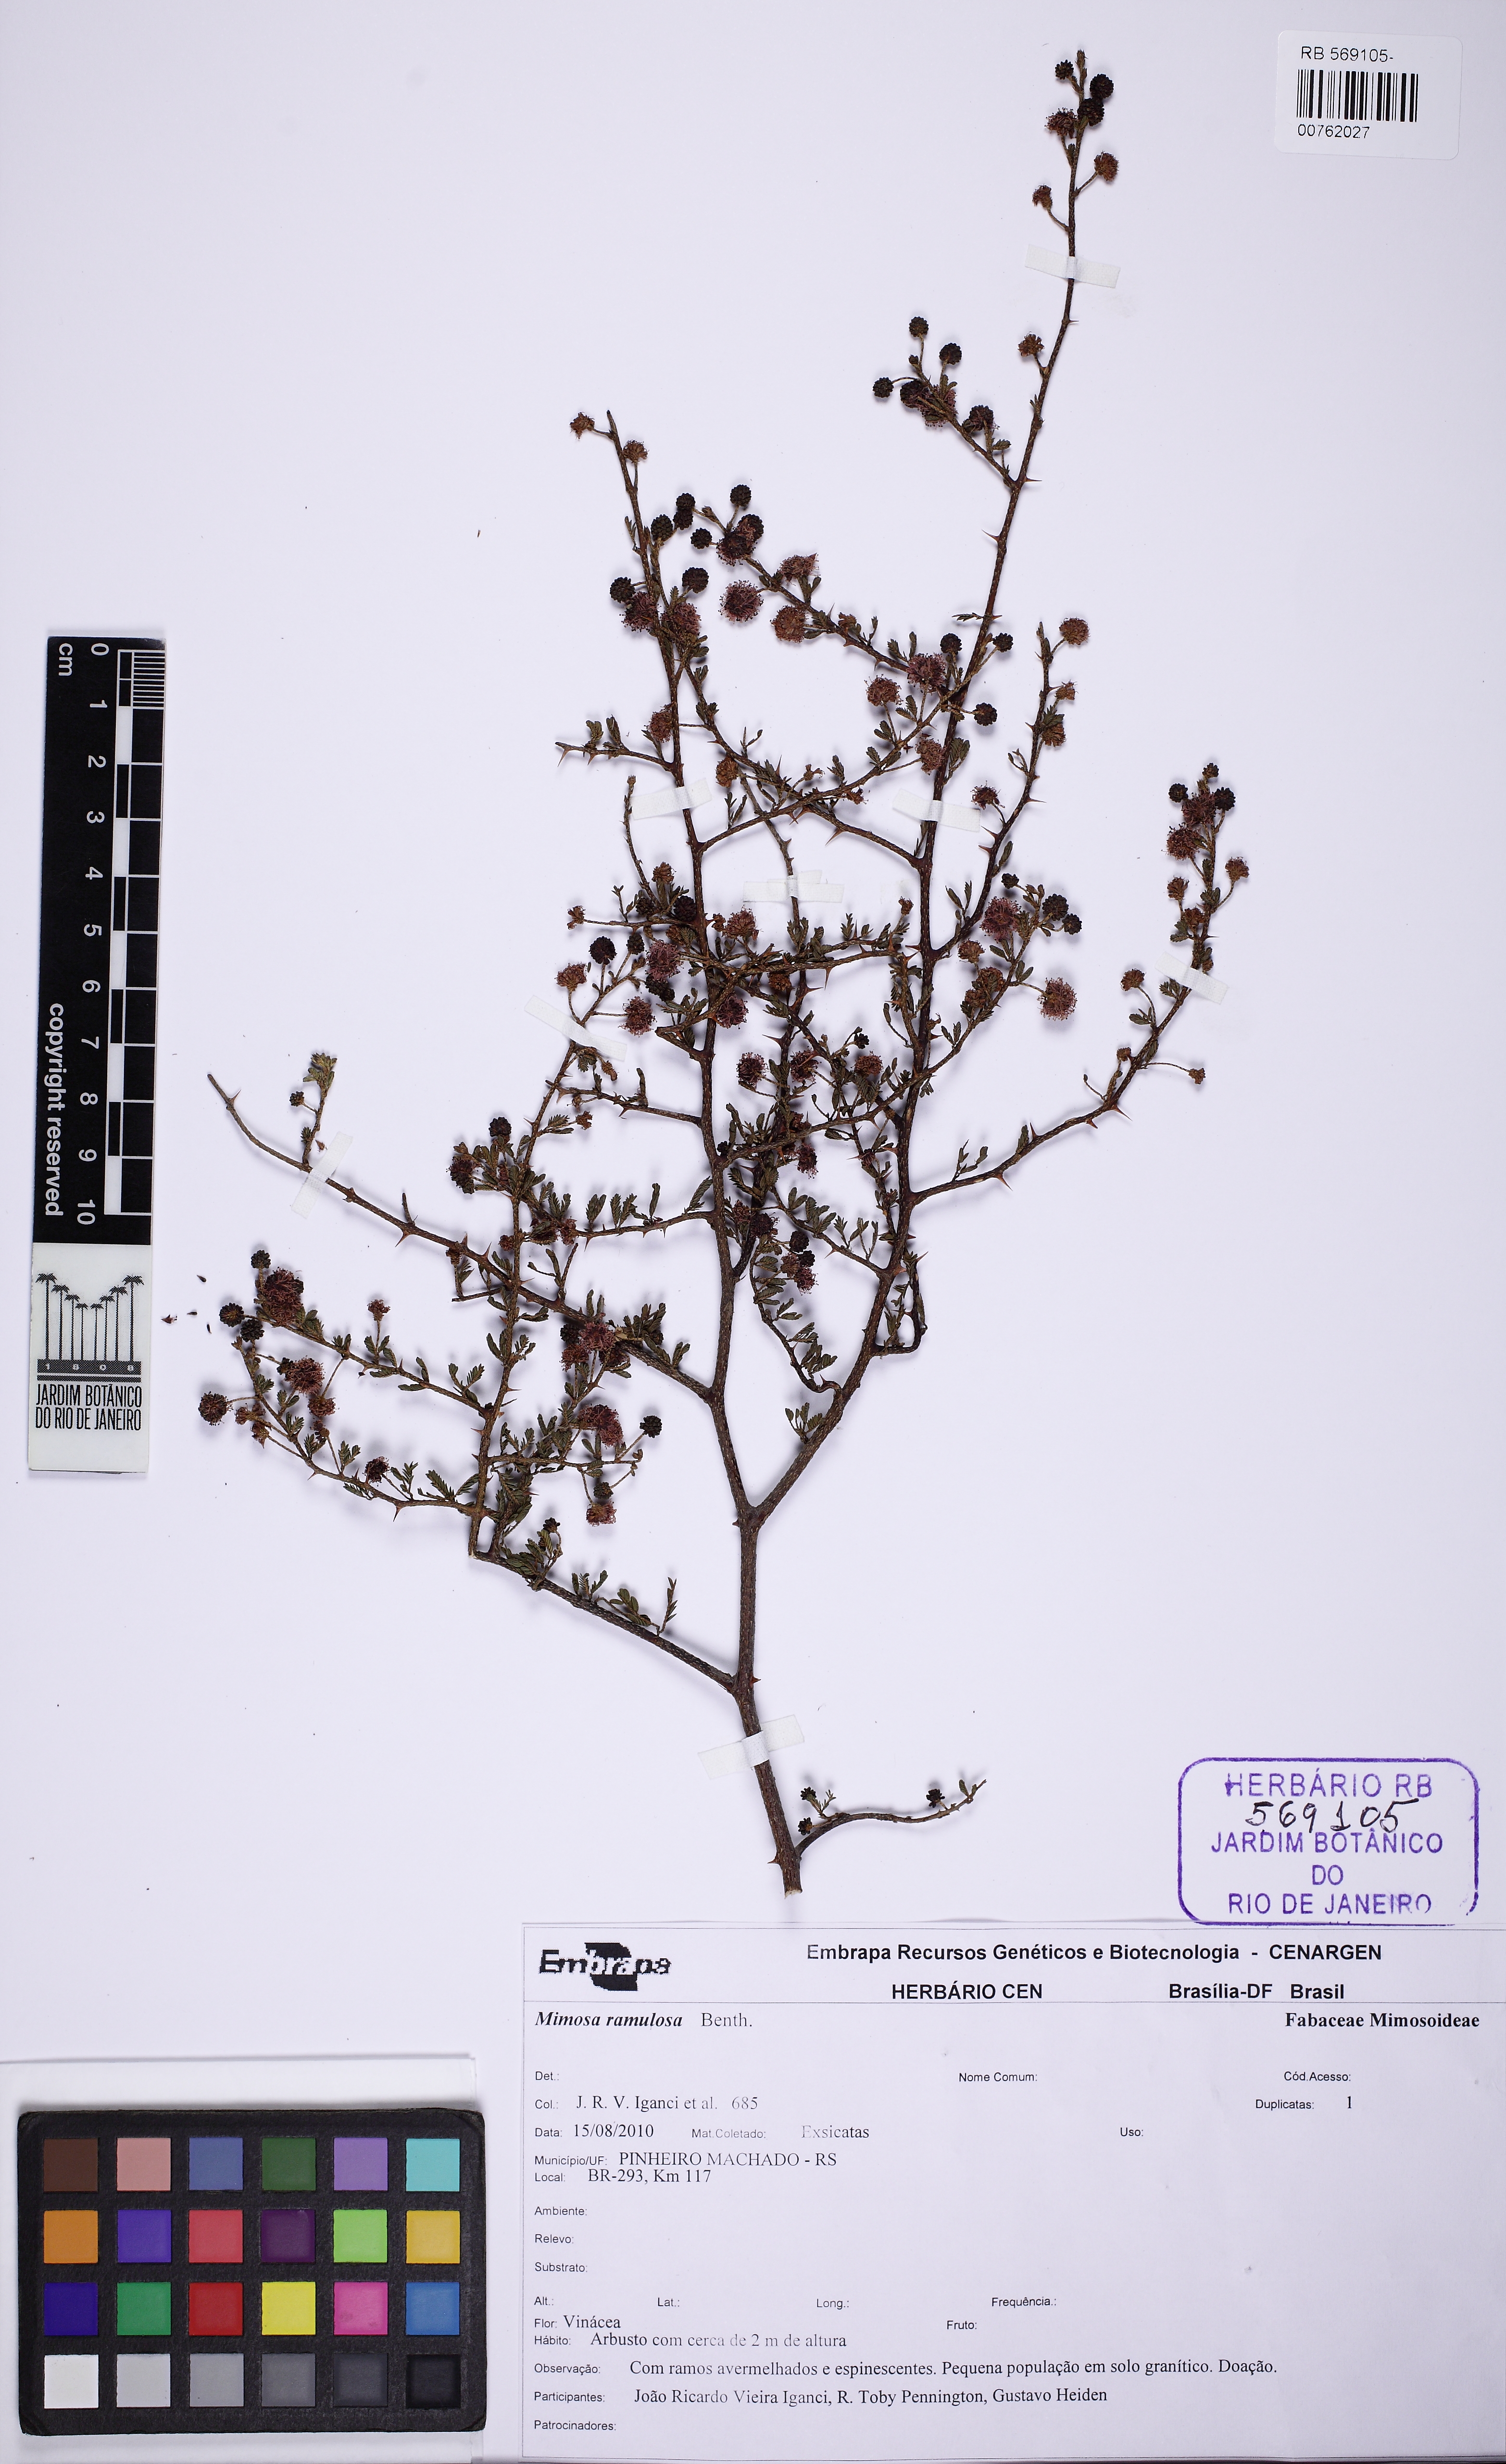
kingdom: Plantae
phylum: Tracheophyta
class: Magnoliopsida
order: Fabales
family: Fabaceae
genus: Mimosa
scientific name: Mimosa ramulosa
